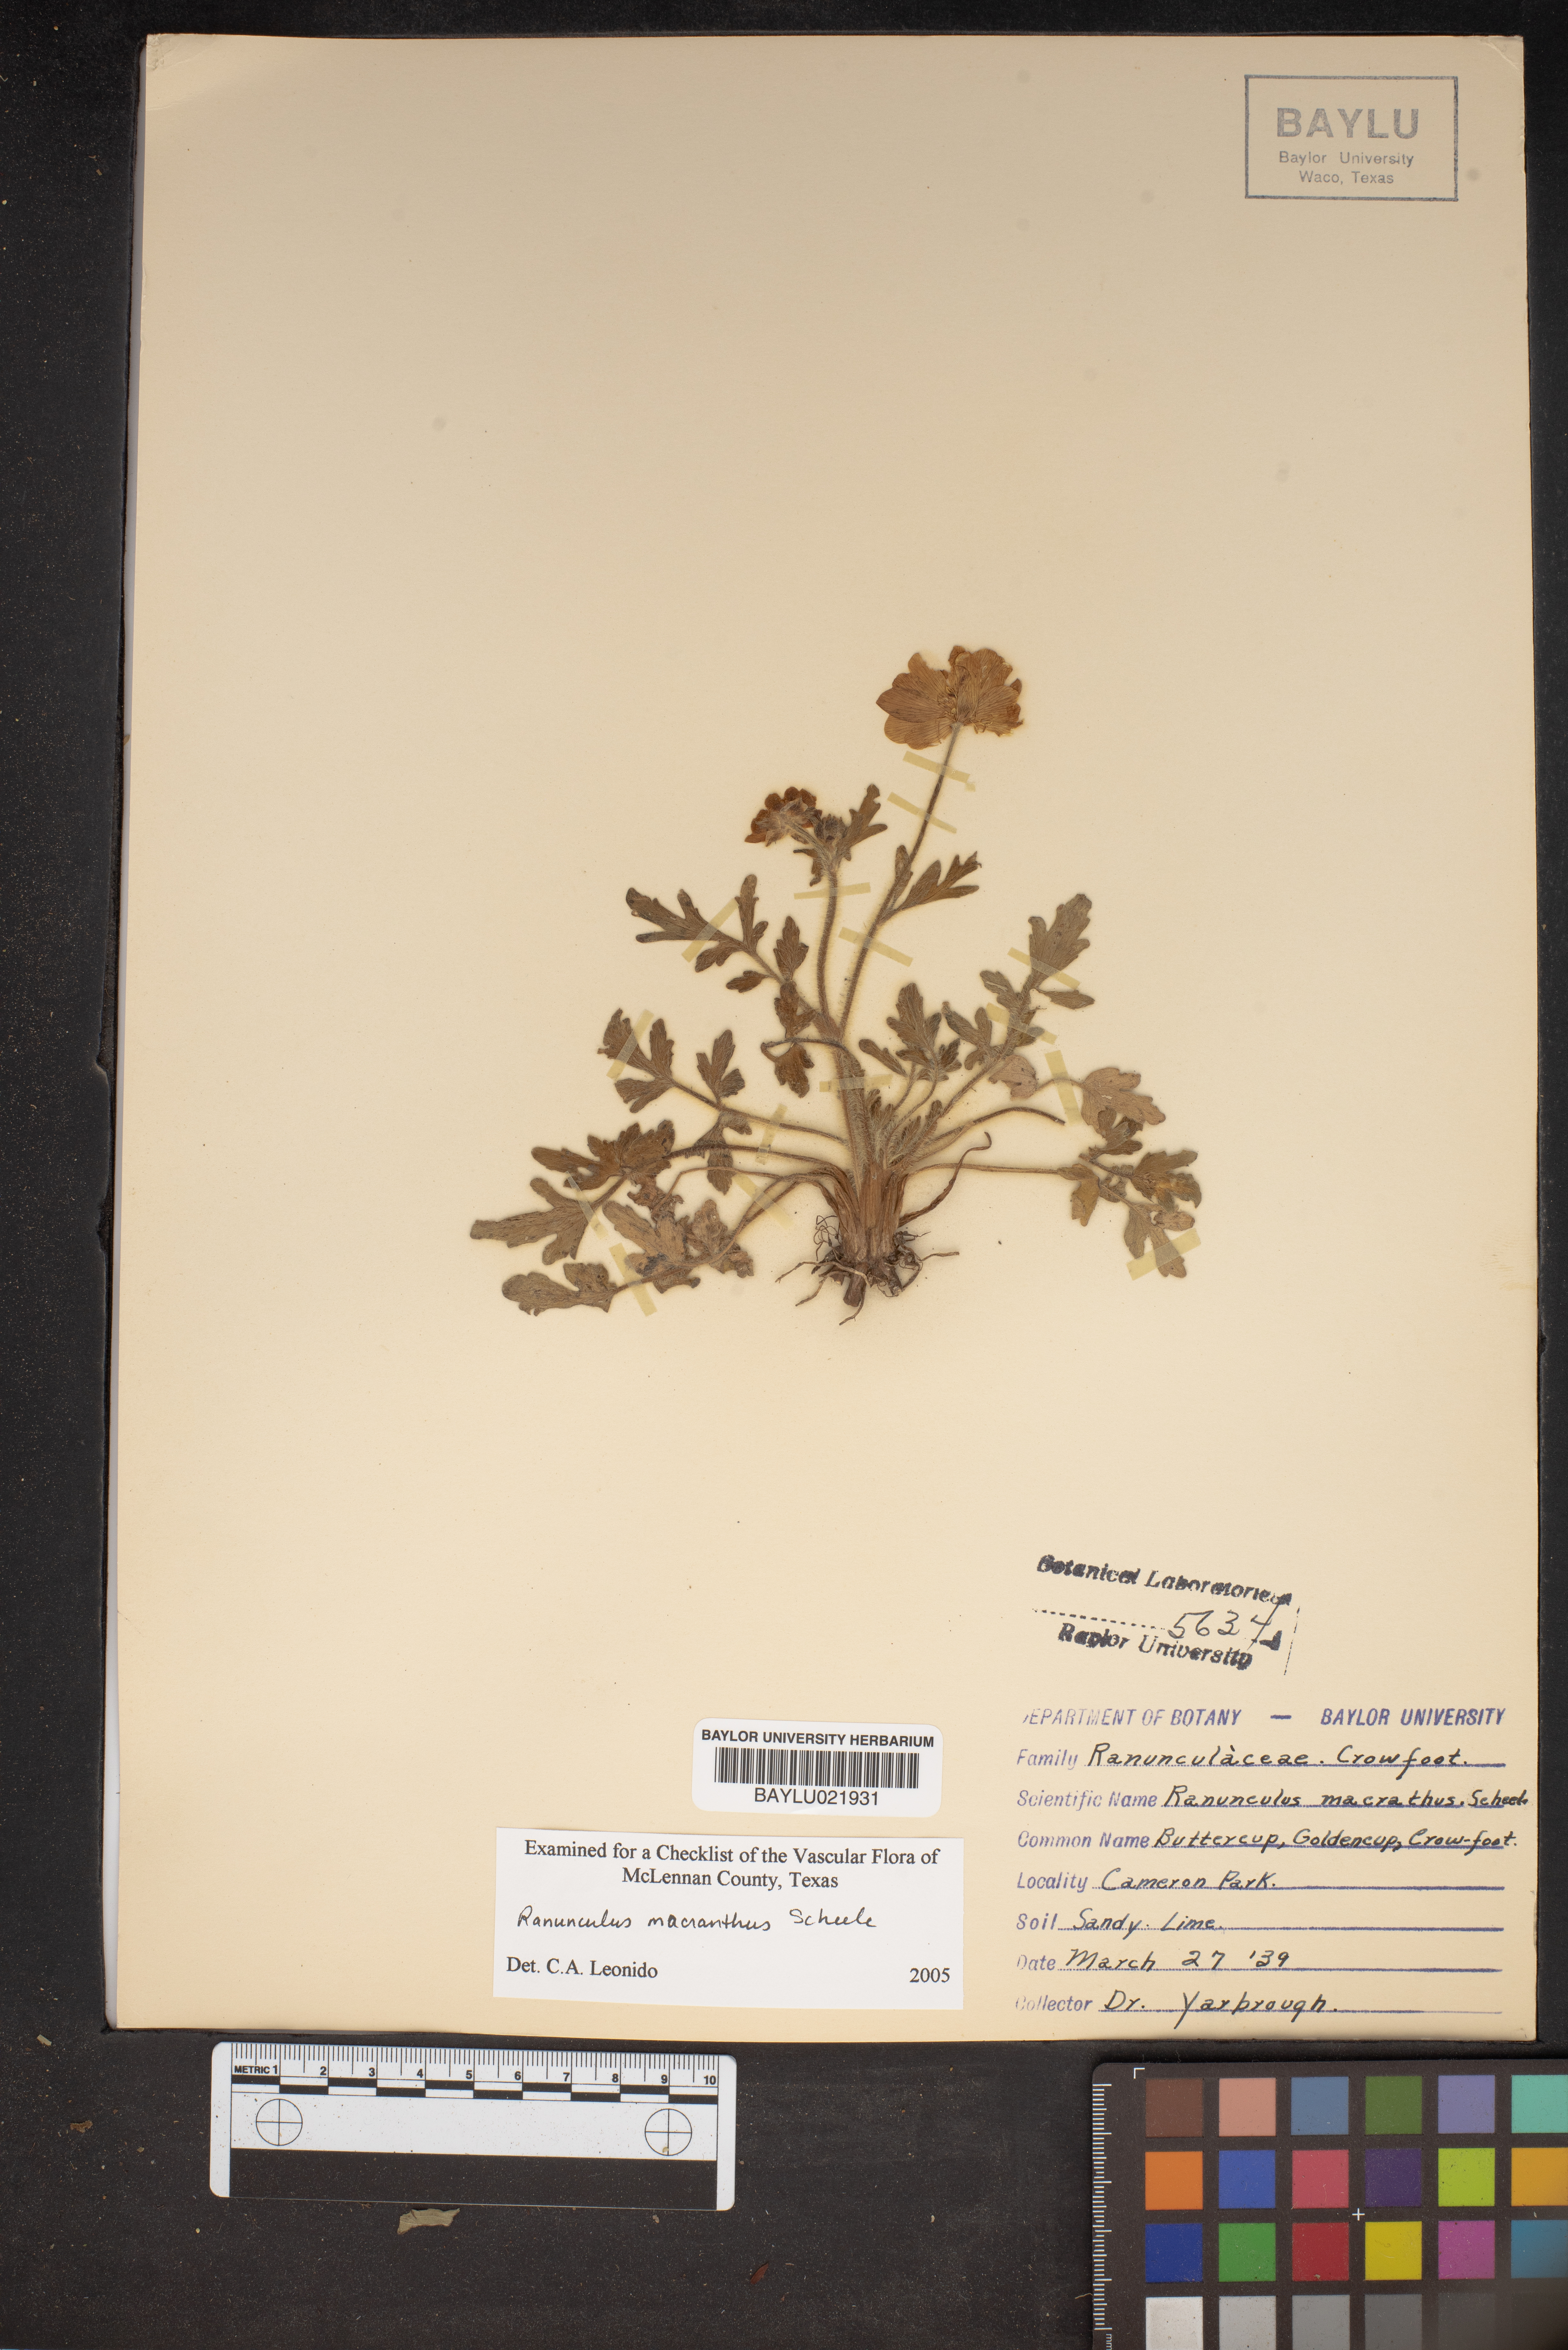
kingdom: Plantae
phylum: Tracheophyta
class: Magnoliopsida
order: Ranunculales
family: Ranunculaceae
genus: Ranunculus
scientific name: Ranunculus macranthus
